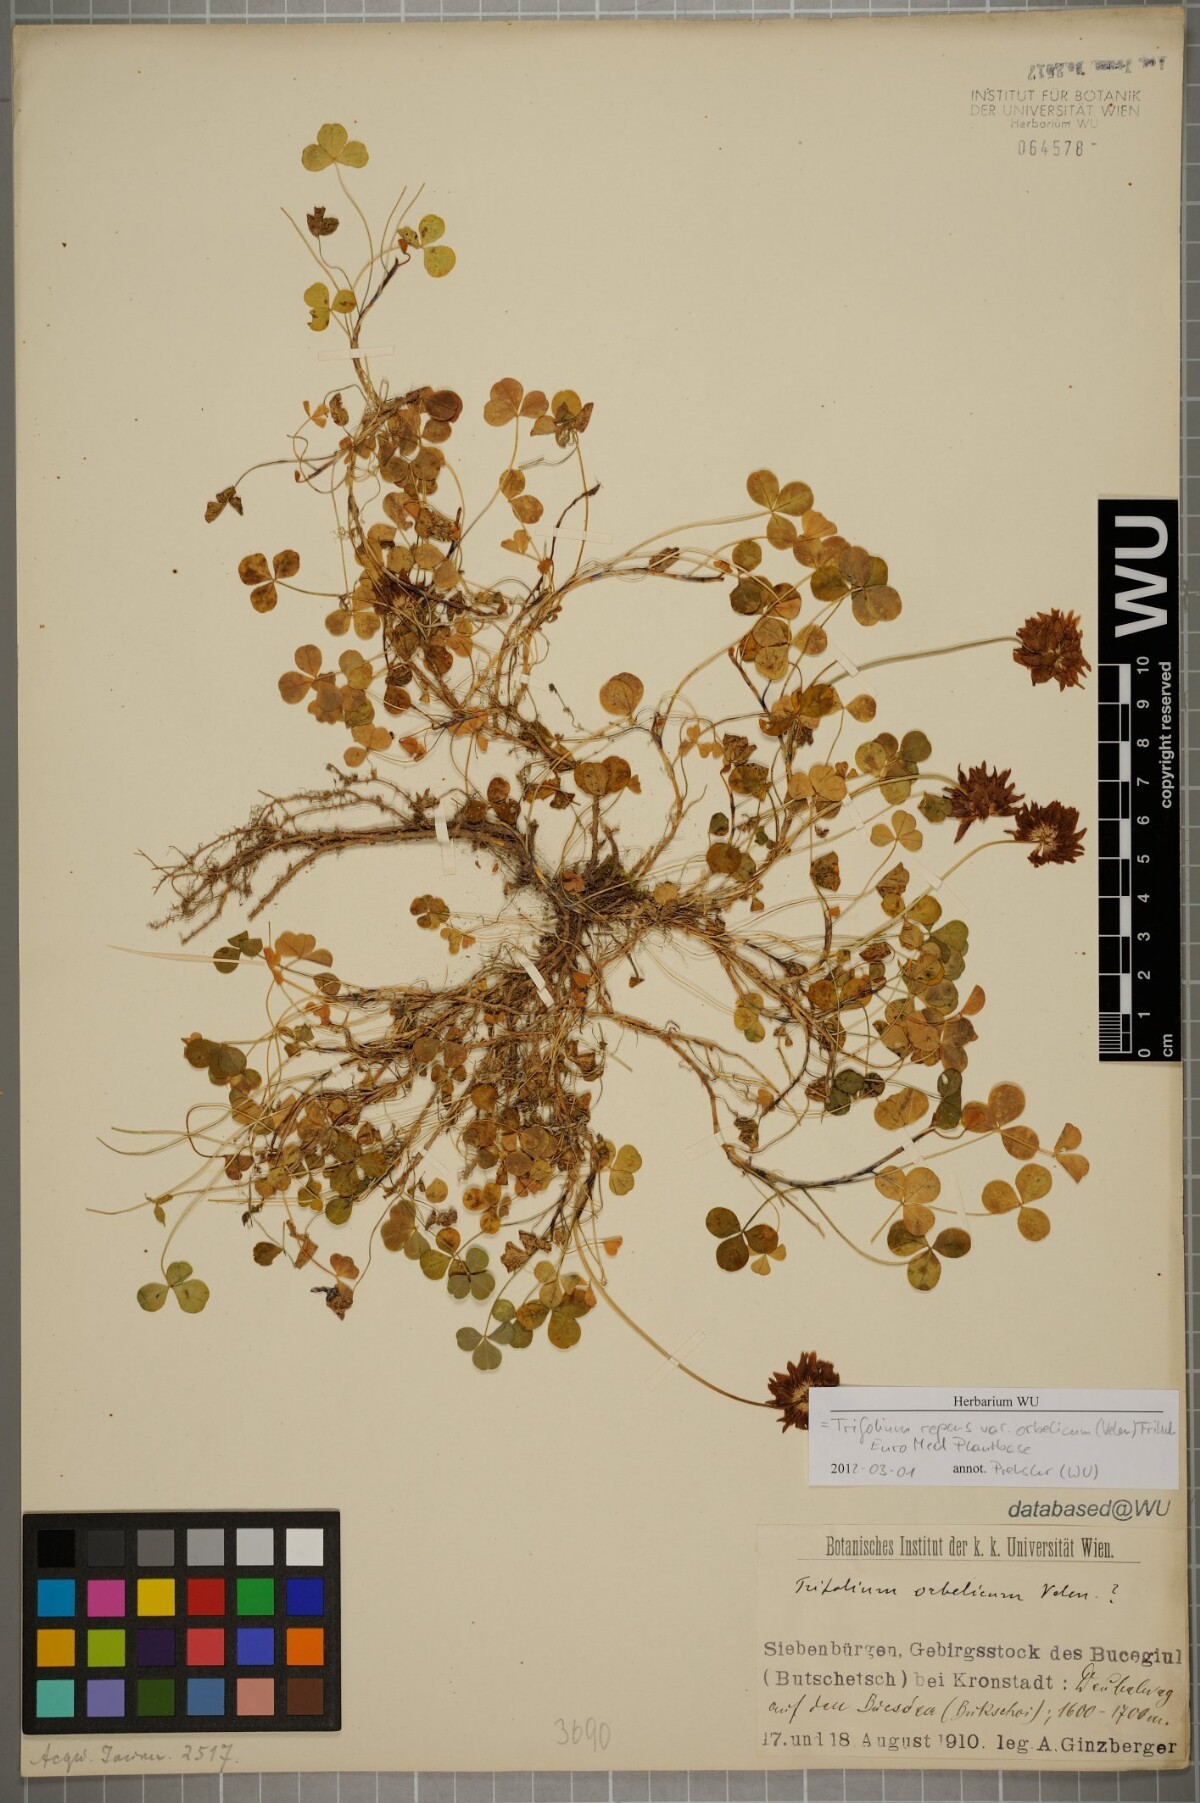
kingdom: Plantae
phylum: Tracheophyta
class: Magnoliopsida
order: Fabales
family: Fabaceae
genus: Trifolium
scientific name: Trifolium orbelicum
